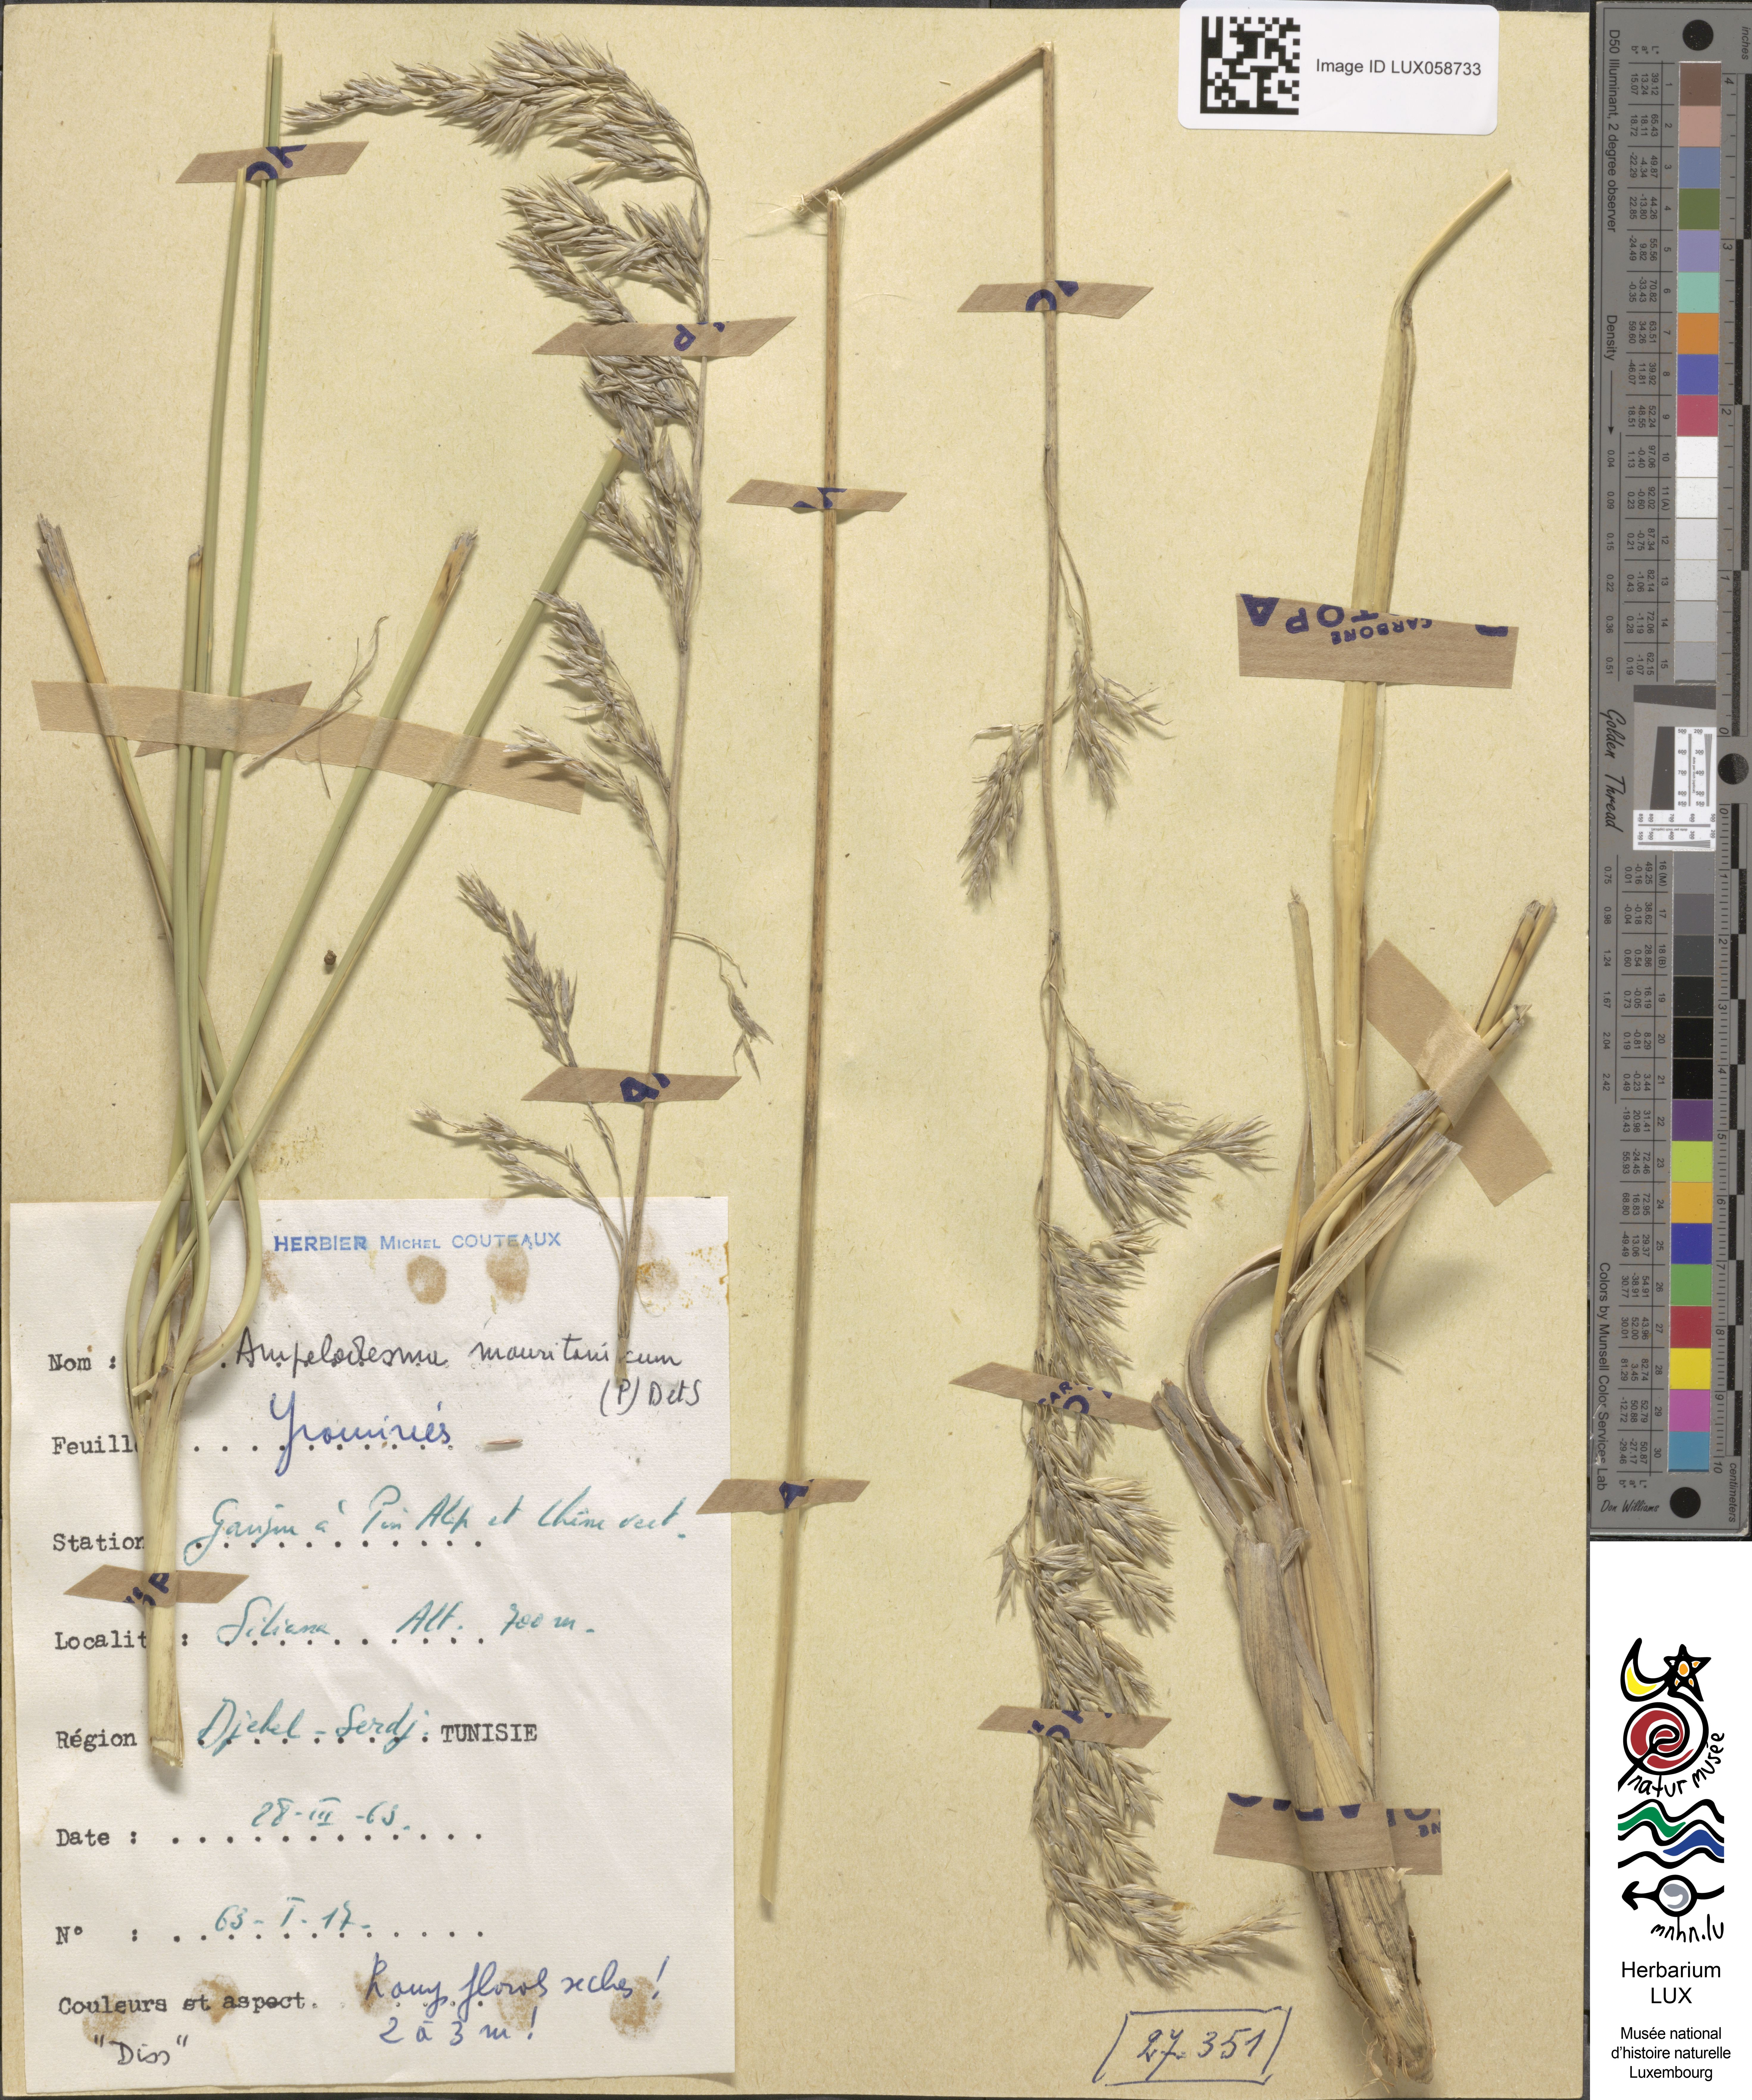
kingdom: Plantae
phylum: Tracheophyta
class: Liliopsida
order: Poales
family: Poaceae
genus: Ampelodesmos
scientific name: Ampelodesmos mauritanicus
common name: Mauritanian grass
